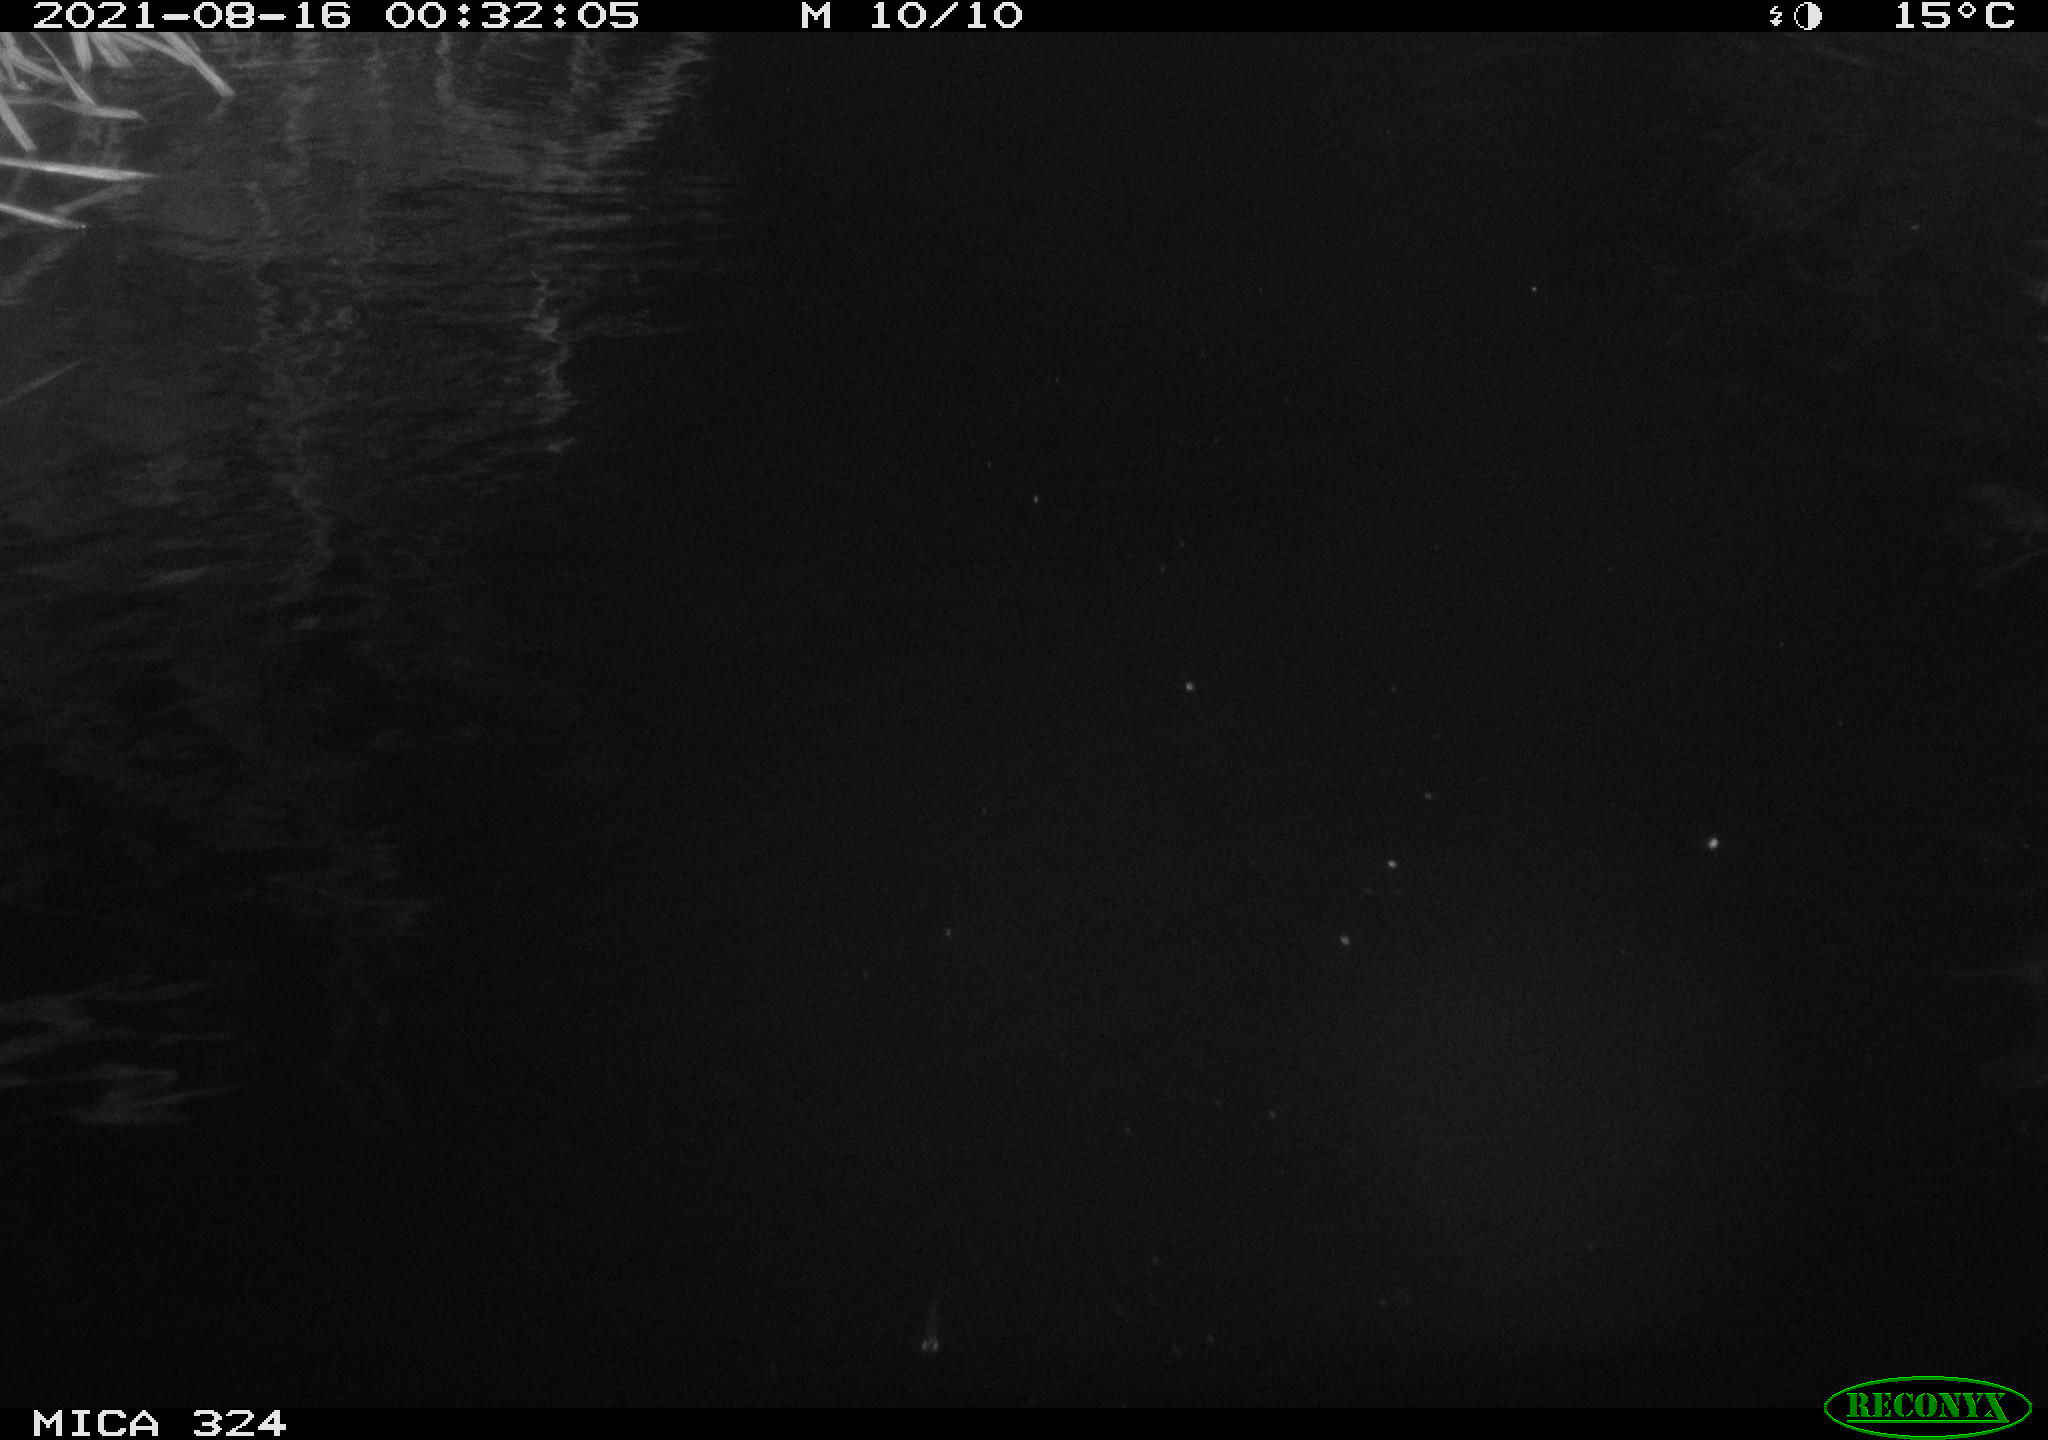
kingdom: Animalia
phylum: Chordata
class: Mammalia
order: Rodentia
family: Cricetidae
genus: Ondatra
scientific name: Ondatra zibethicus
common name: Muskrat
